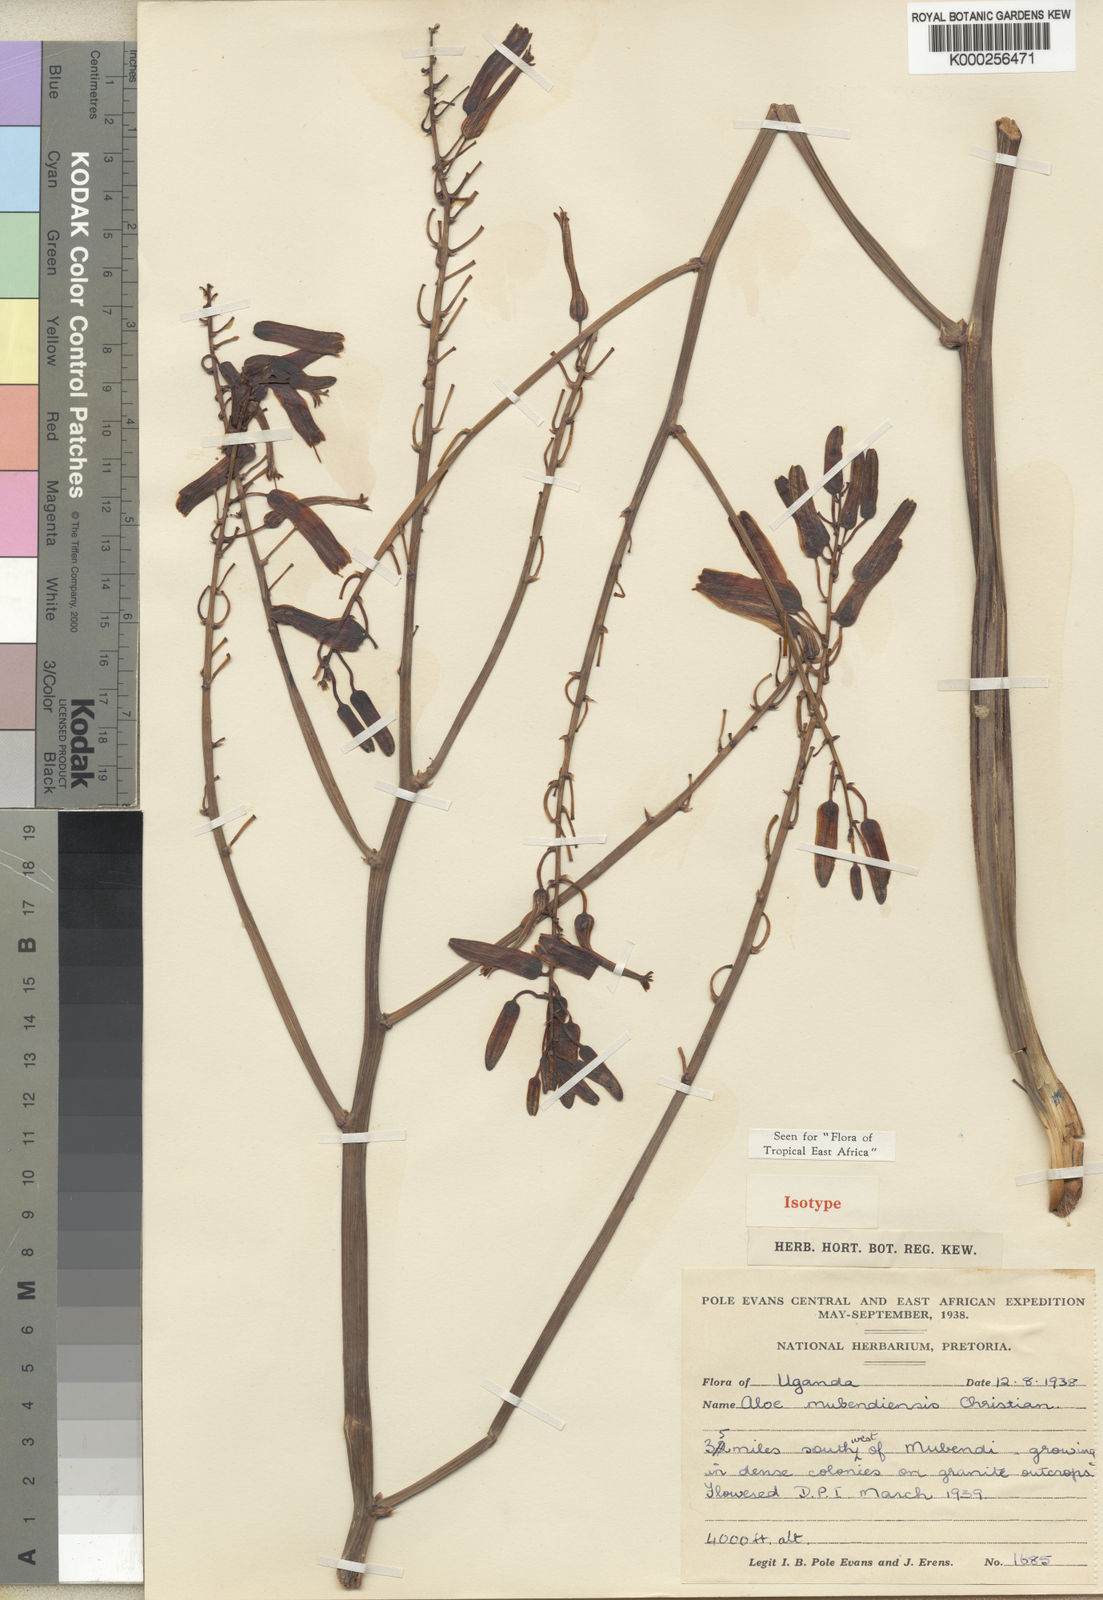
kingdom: Plantae
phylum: Tracheophyta
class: Liliopsida
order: Asparagales
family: Asphodelaceae
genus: Aloe
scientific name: Aloe mubendiensis
